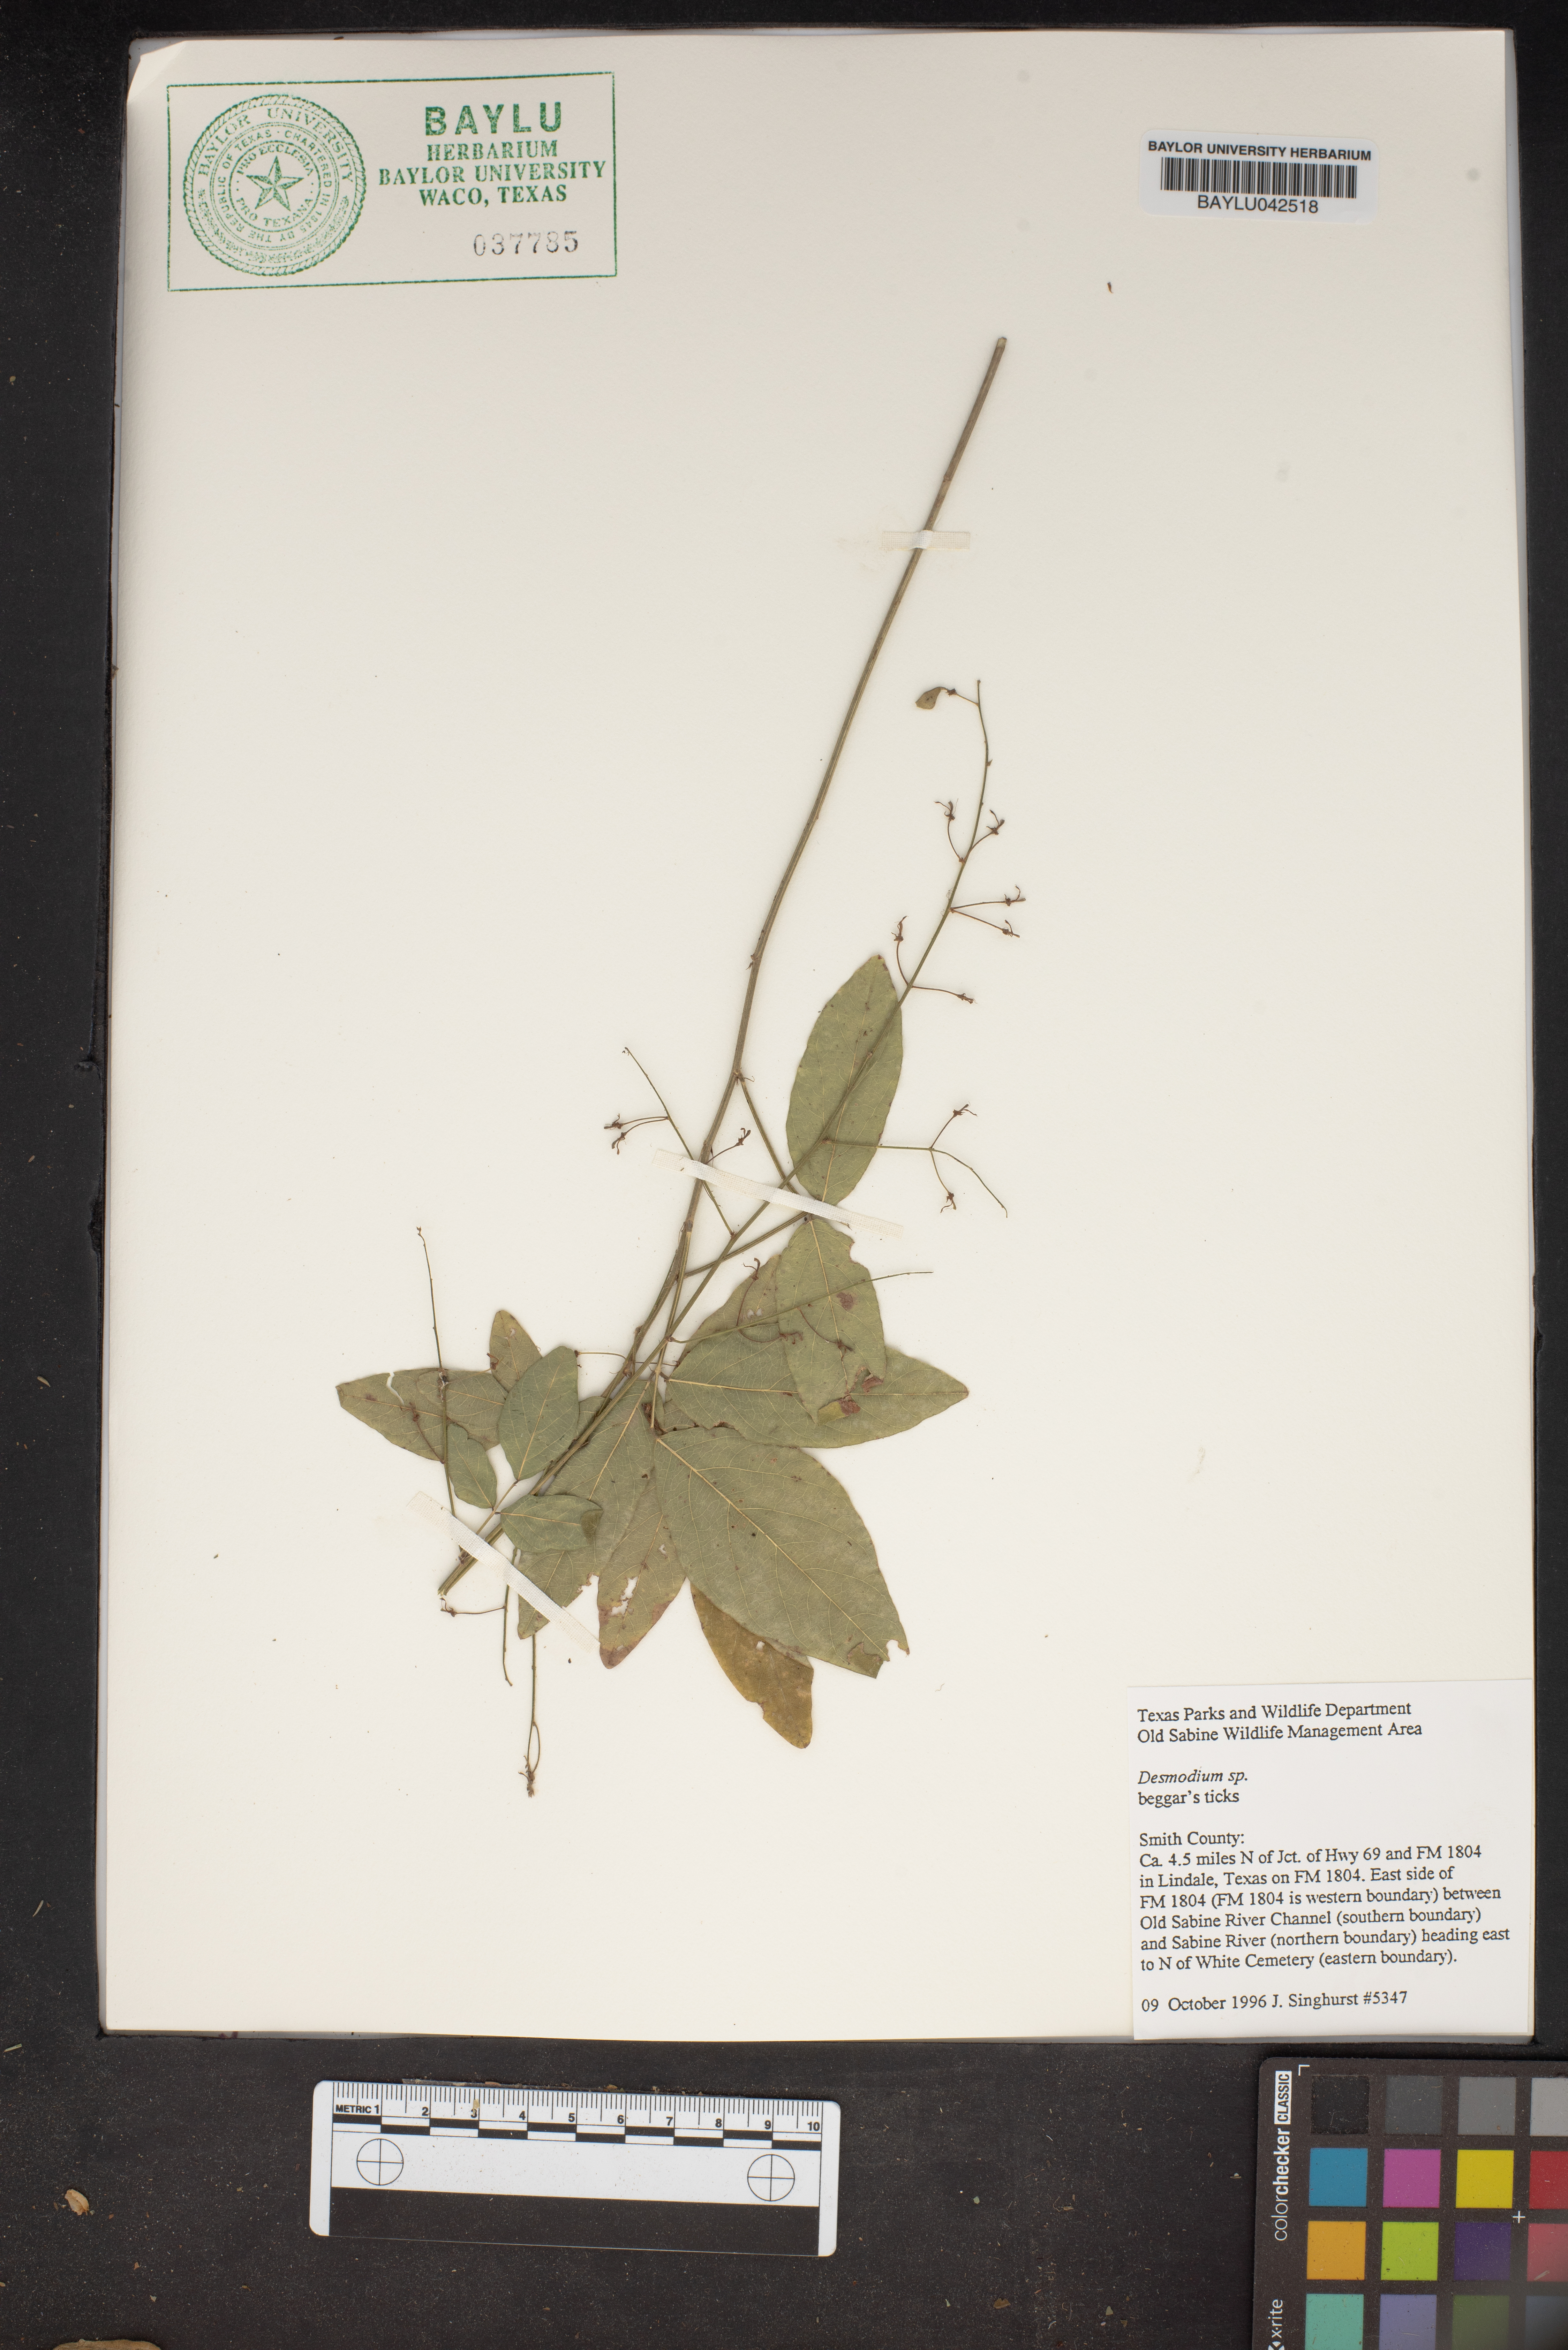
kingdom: Plantae
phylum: Tracheophyta
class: Magnoliopsida
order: Fabales
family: Fabaceae
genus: Desmodium
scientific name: Desmodium
